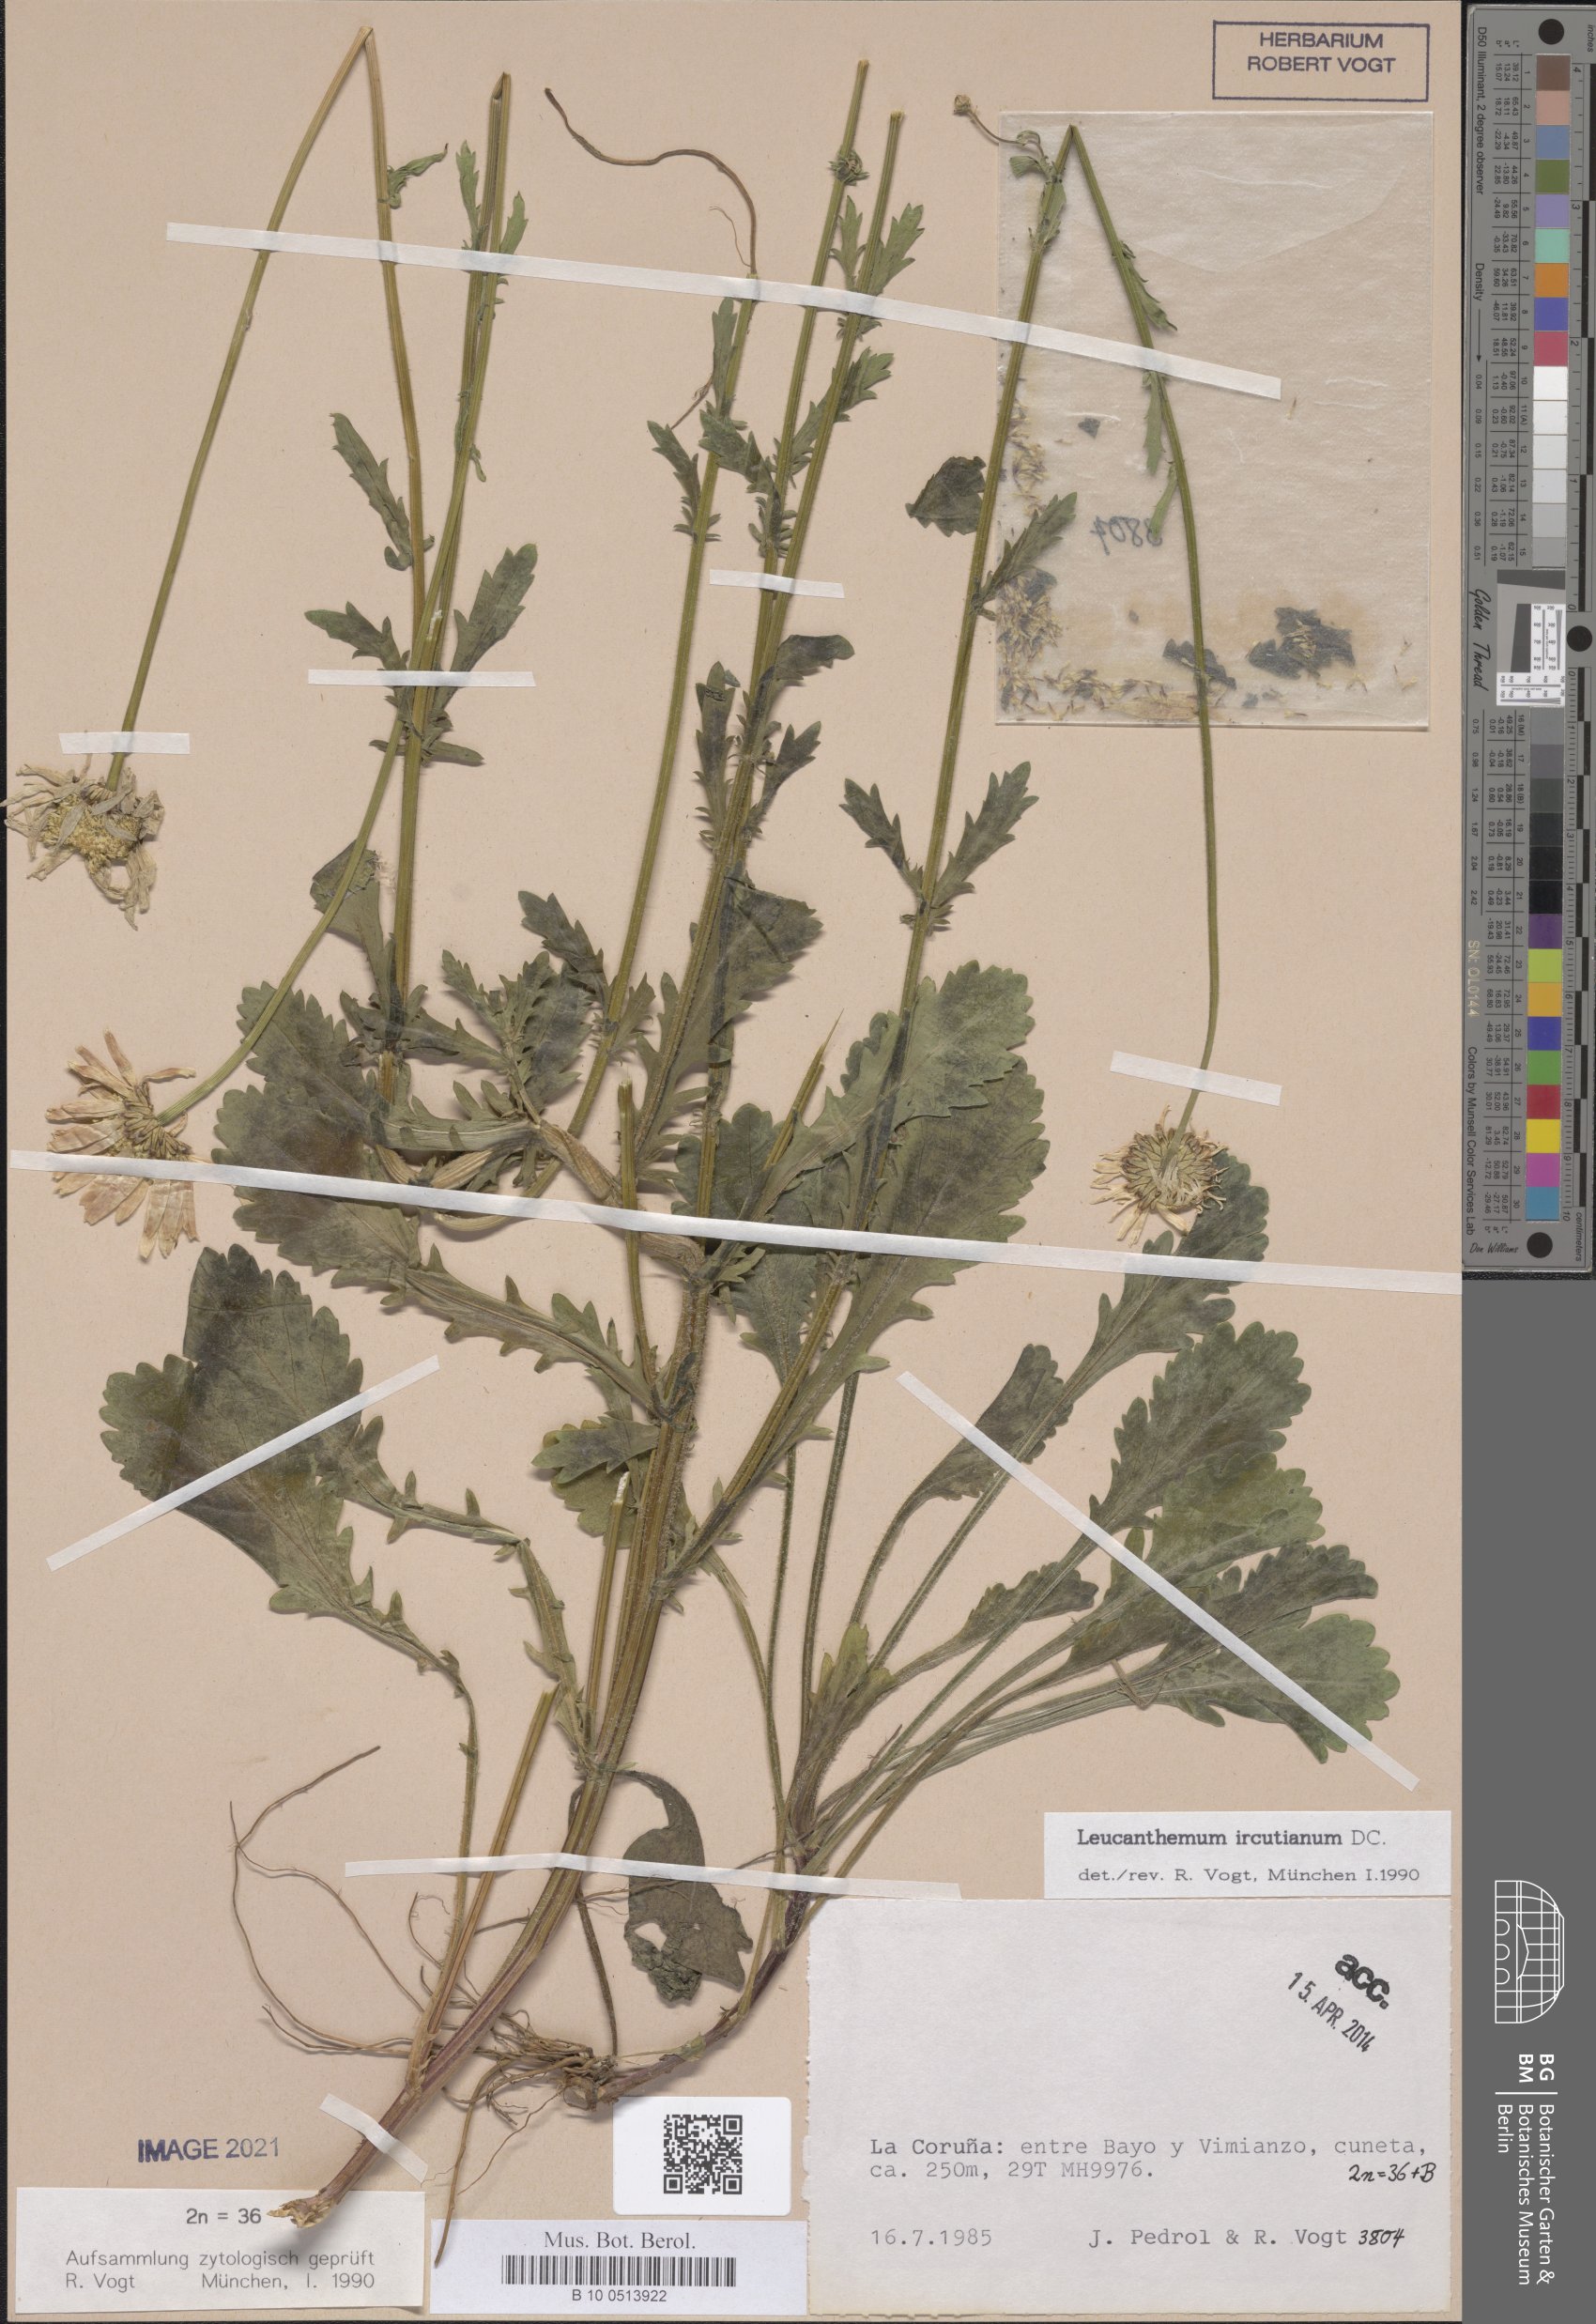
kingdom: Plantae
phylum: Tracheophyta
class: Magnoliopsida
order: Asterales
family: Asteraceae
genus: Leucanthemum
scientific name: Leucanthemum ircutianum
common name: Daisy
